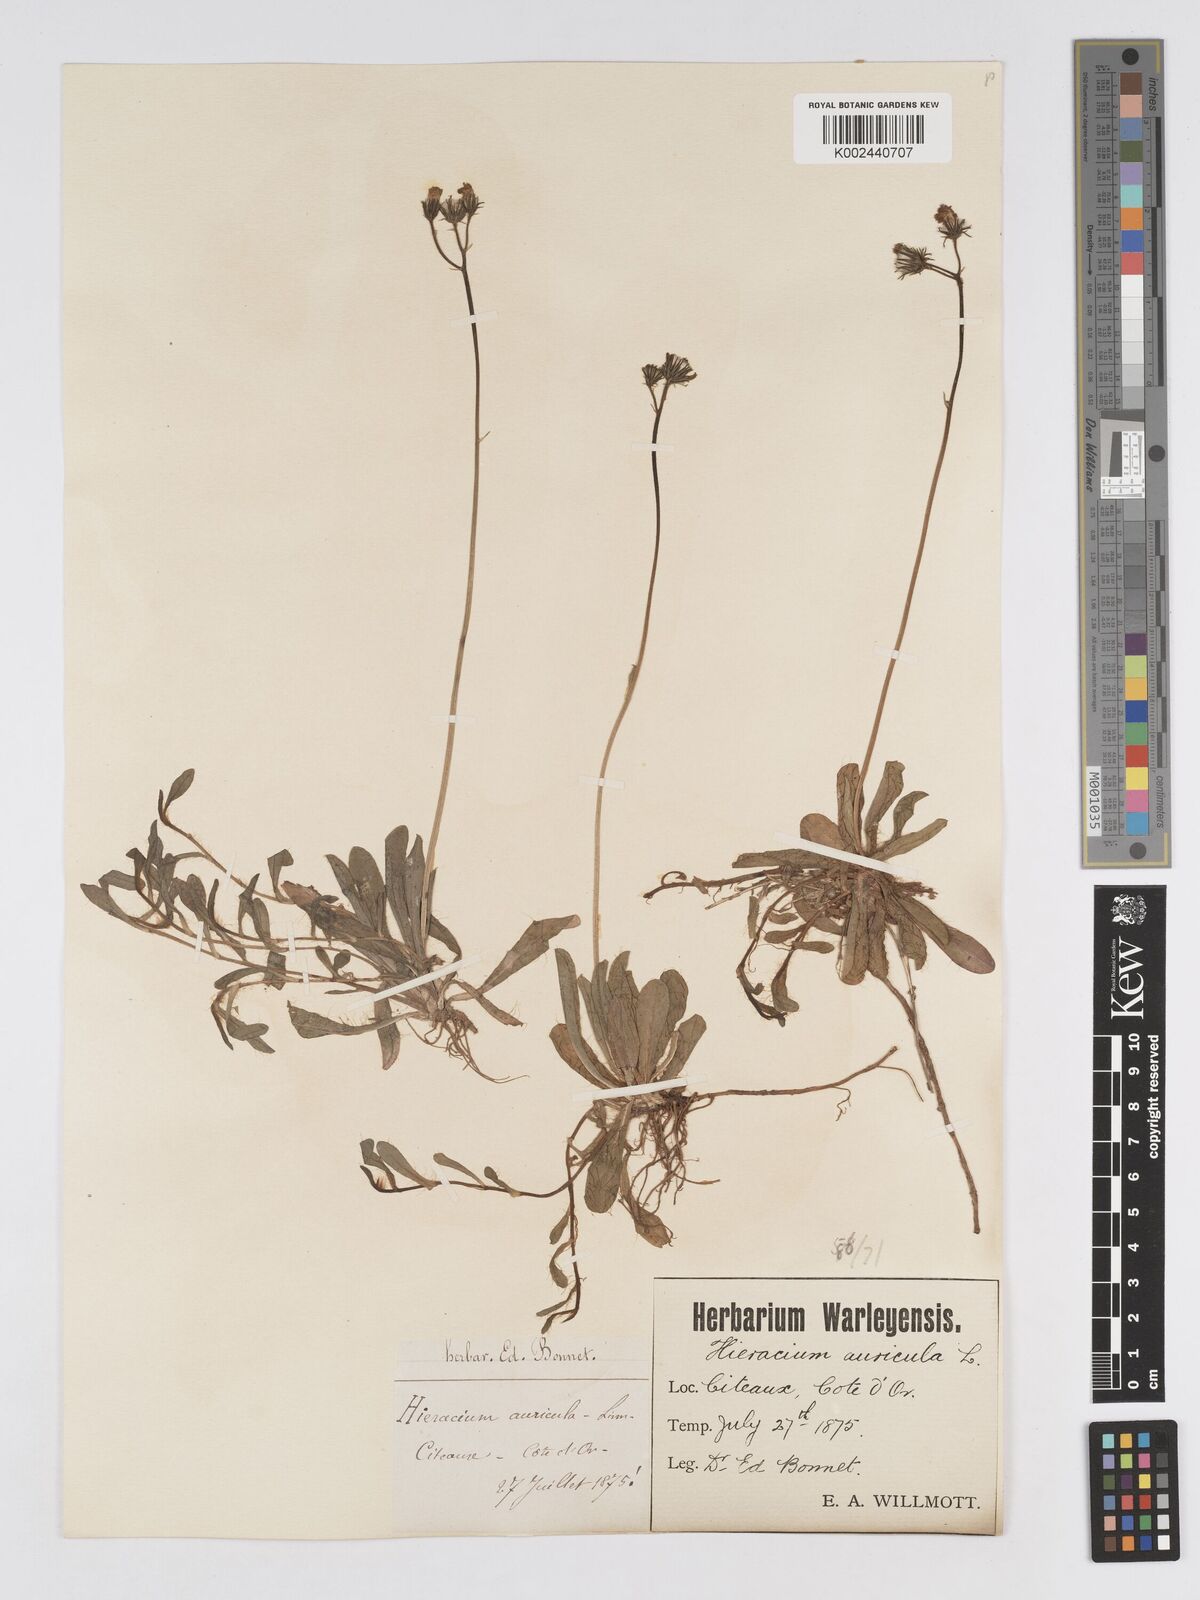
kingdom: Plantae
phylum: Tracheophyta
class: Magnoliopsida
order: Asterales
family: Asteraceae
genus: Pilosella
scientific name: Pilosella floribunda
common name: Glaucous hawkweed
